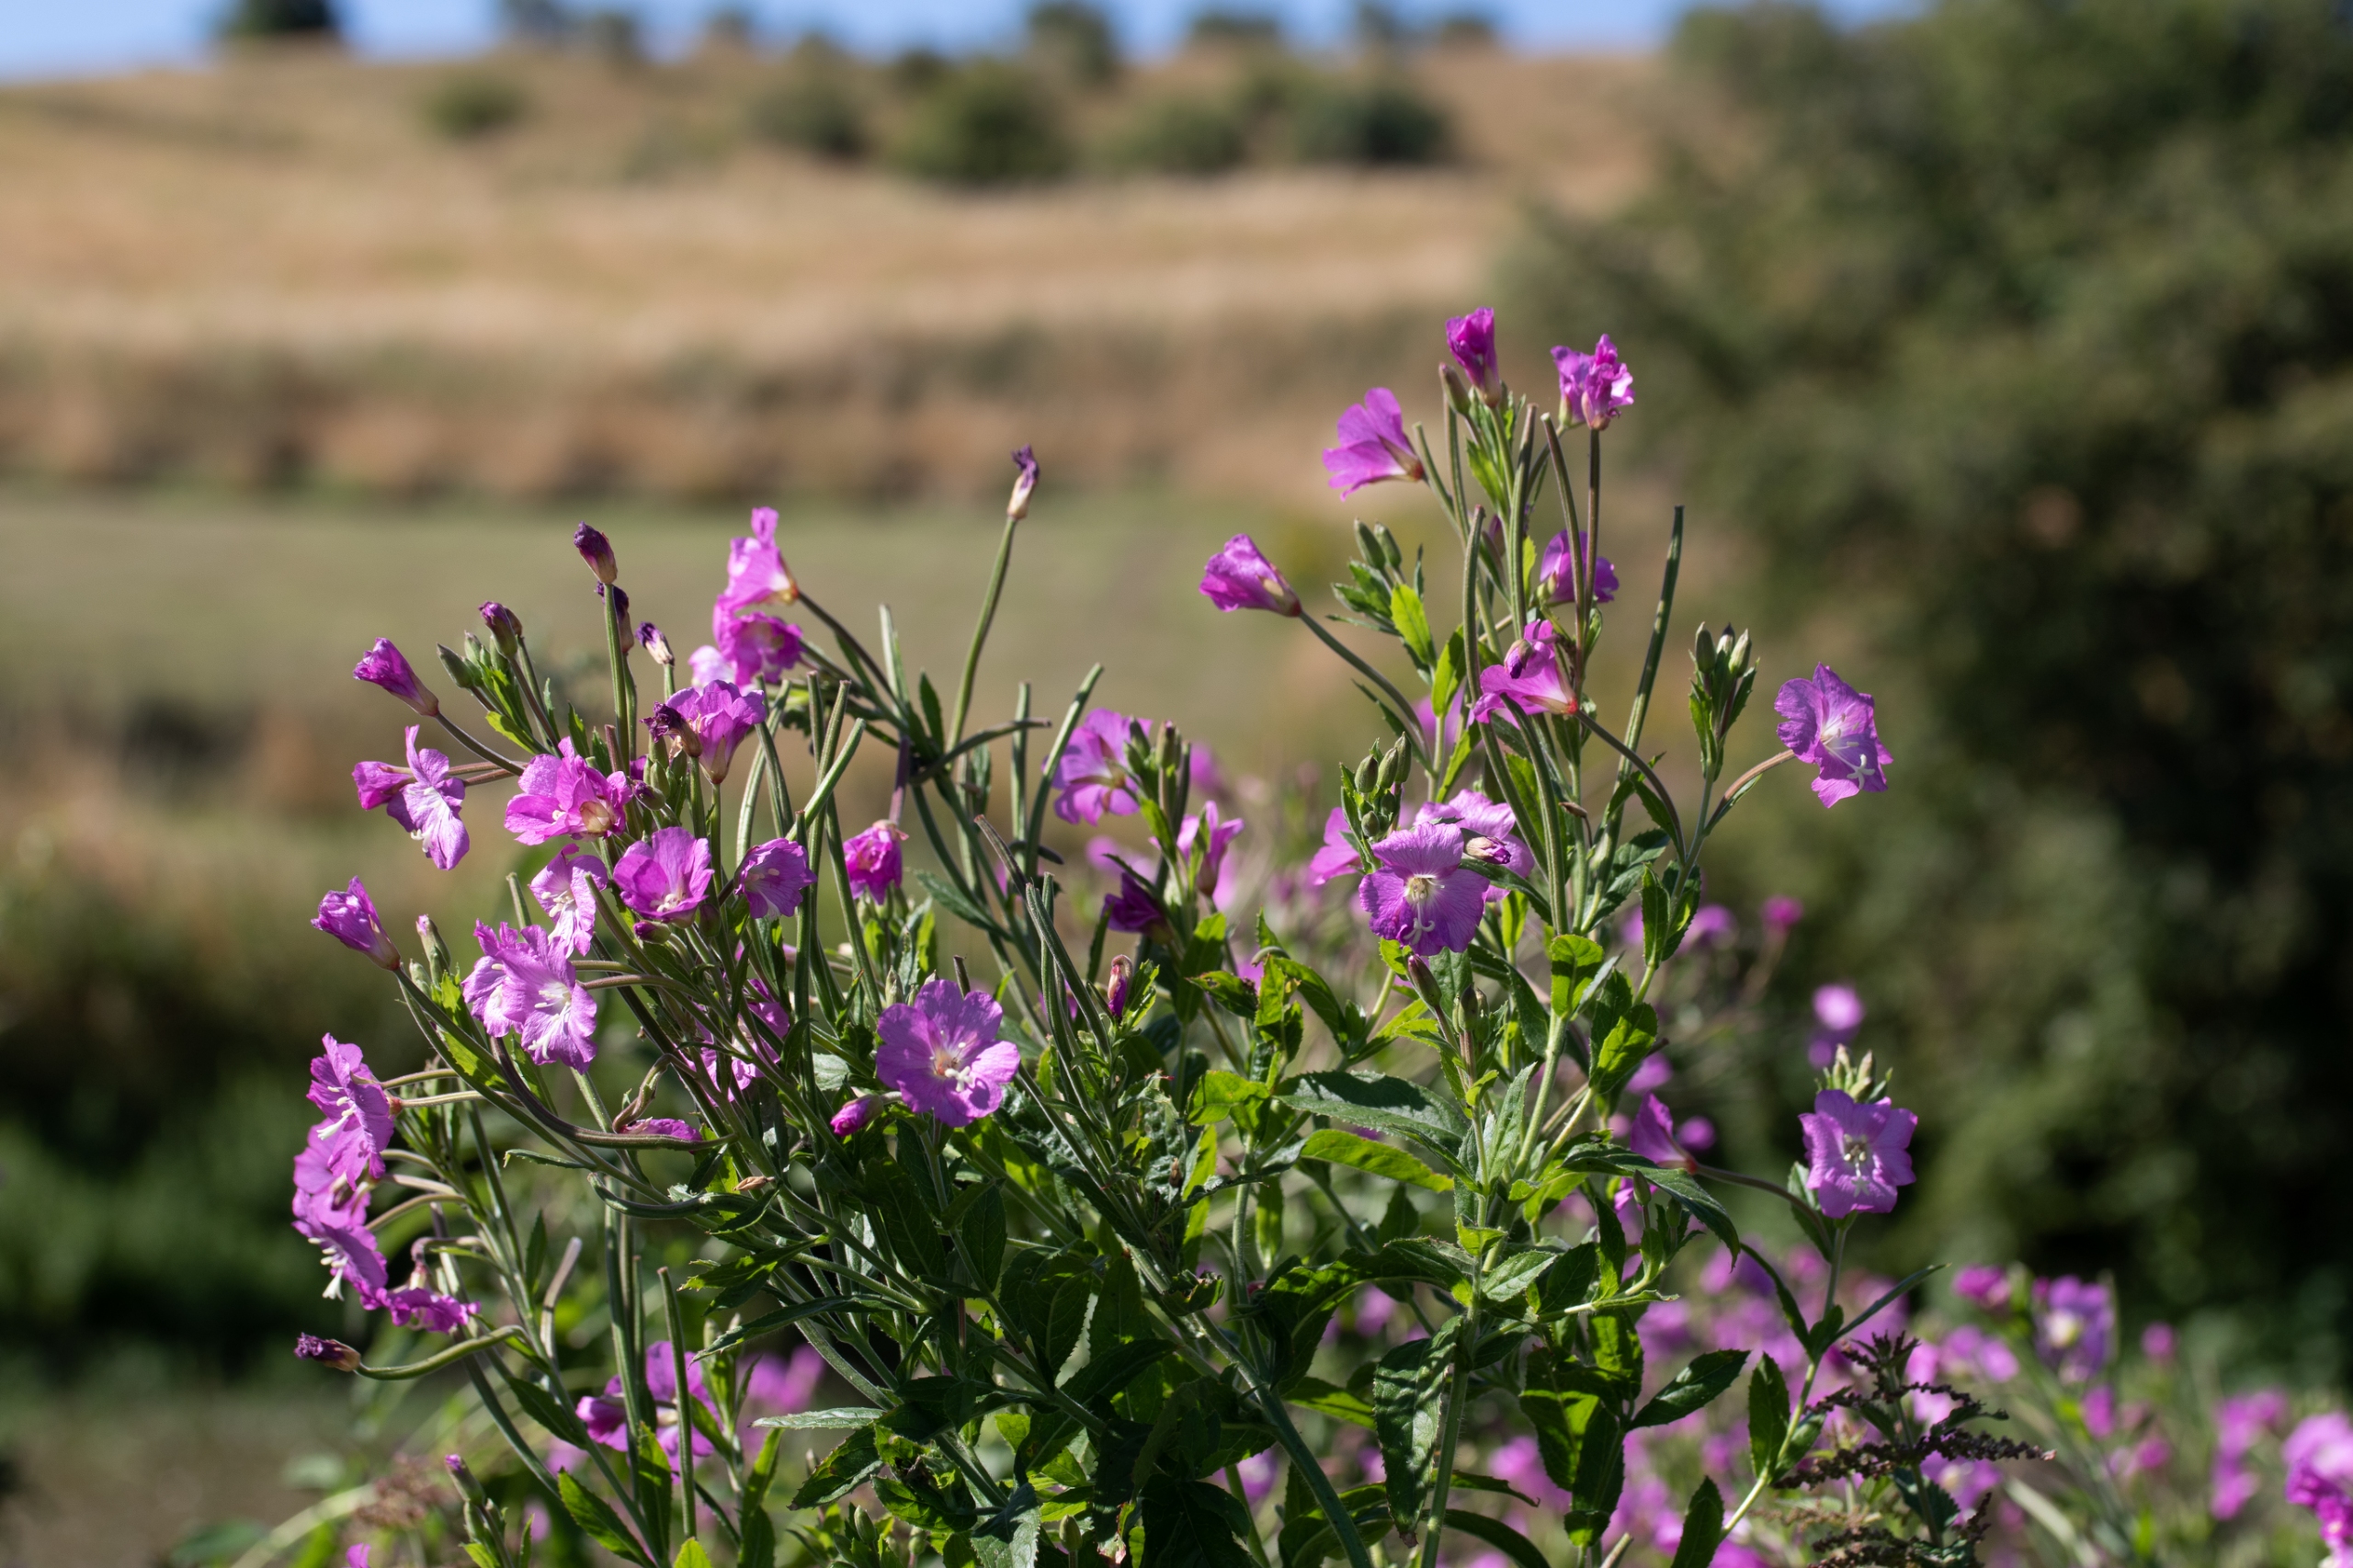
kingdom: Plantae
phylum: Tracheophyta
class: Magnoliopsida
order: Myrtales
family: Onagraceae
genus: Epilobium
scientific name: Epilobium hirsutum
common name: Lådden dueurt
